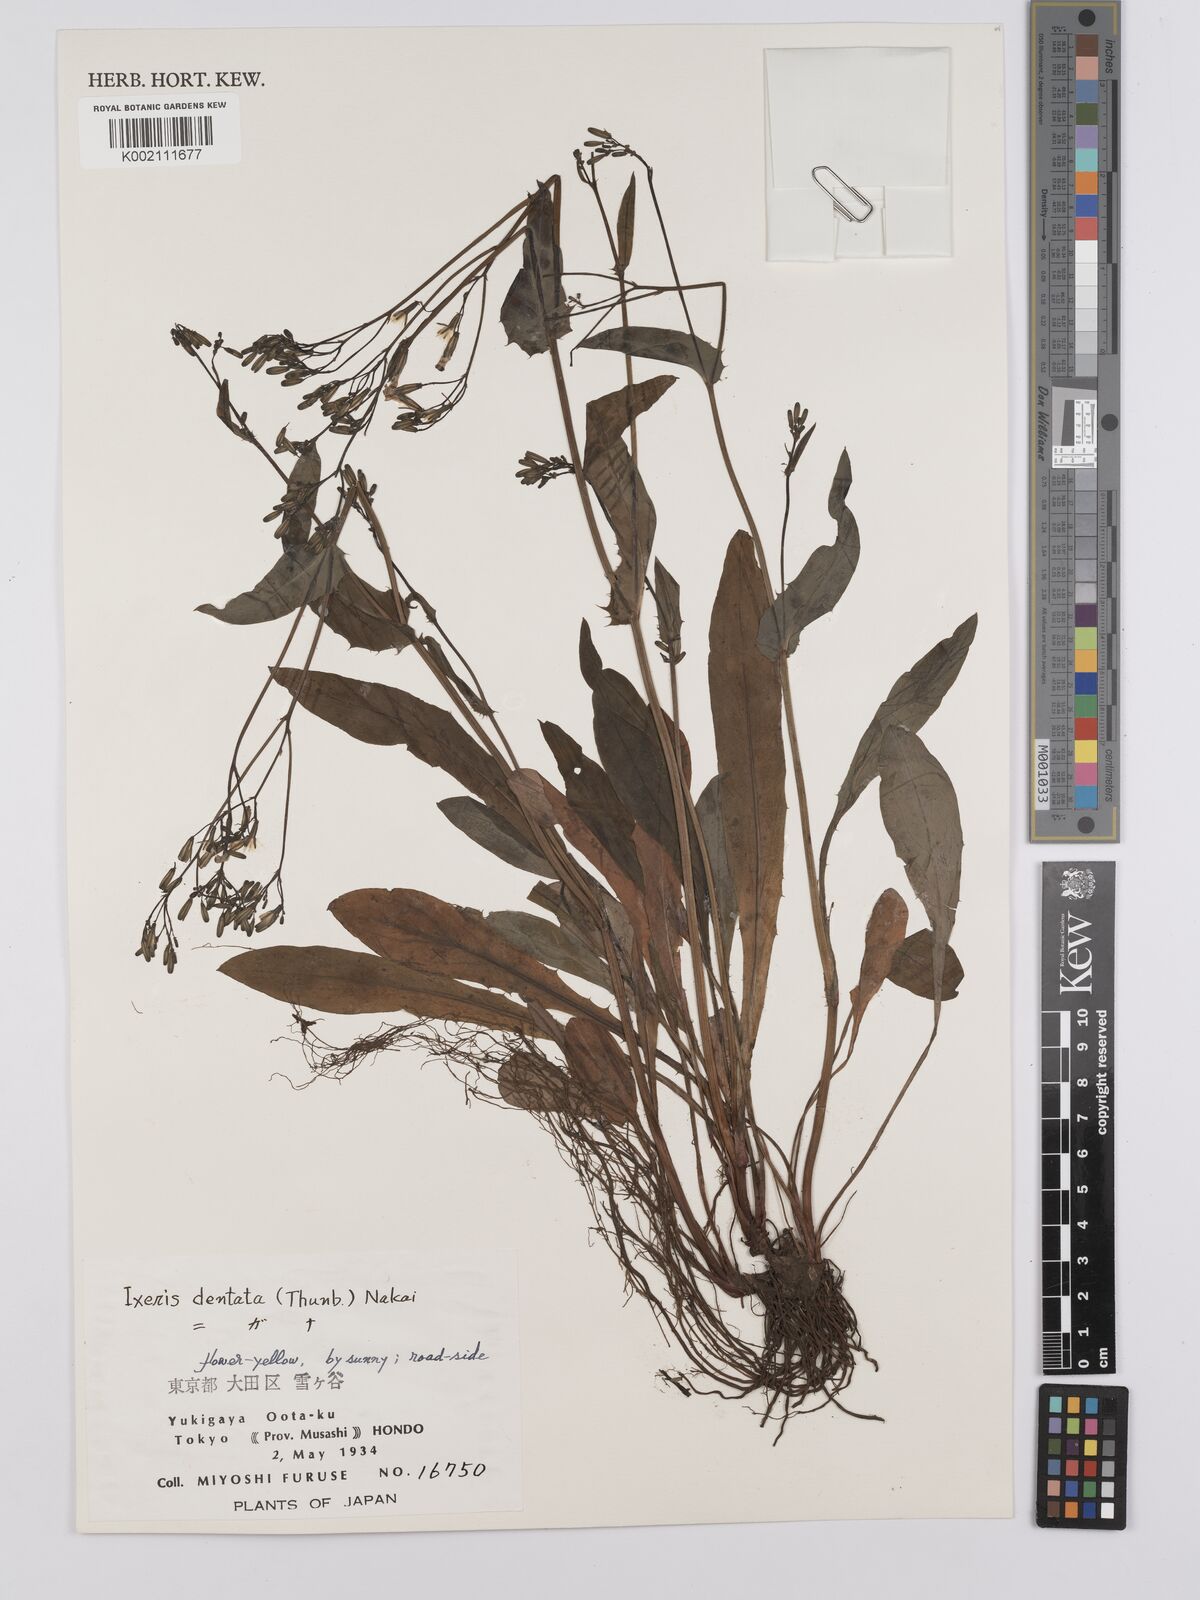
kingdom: Plantae
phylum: Tracheophyta
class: Magnoliopsida
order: Asterales
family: Asteraceae
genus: Ixeridium
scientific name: Ixeridium dentatum
